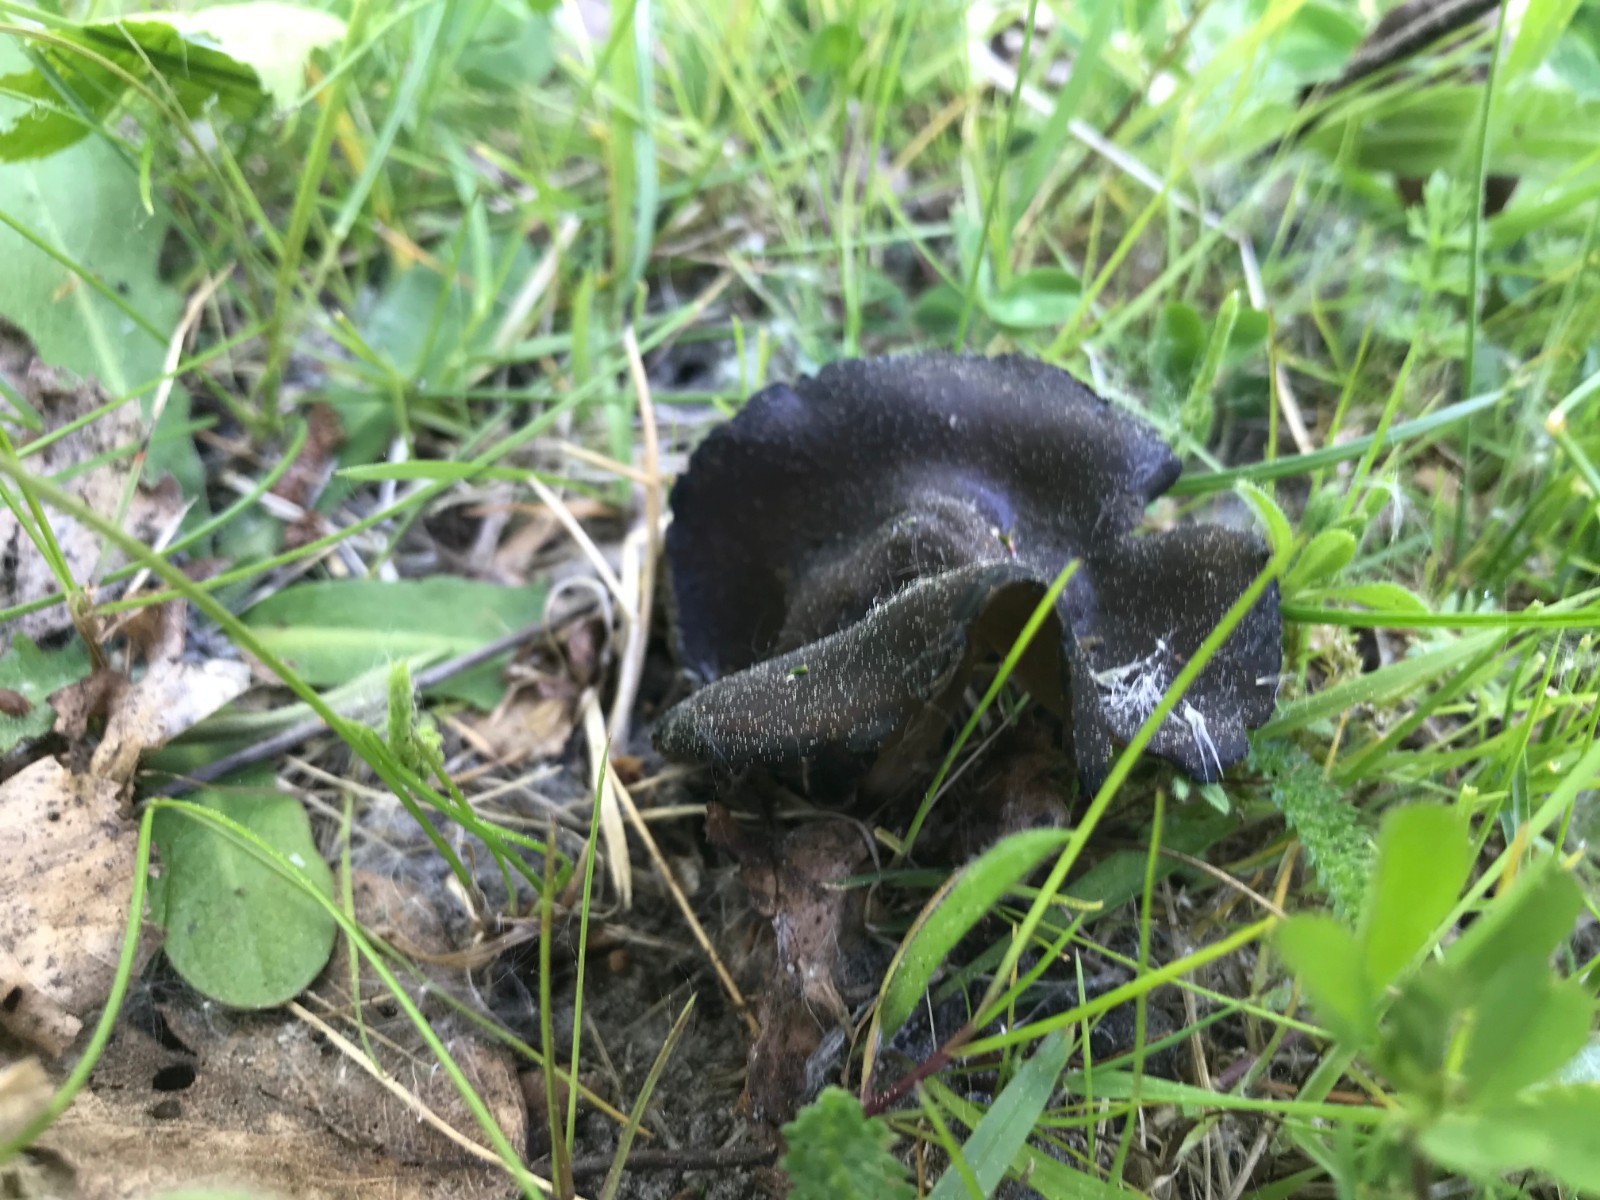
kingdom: Fungi
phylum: Ascomycota
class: Pezizomycetes
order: Pezizales
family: Helvellaceae
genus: Helvella
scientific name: Helvella solitaria
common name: Quélets foldhat
